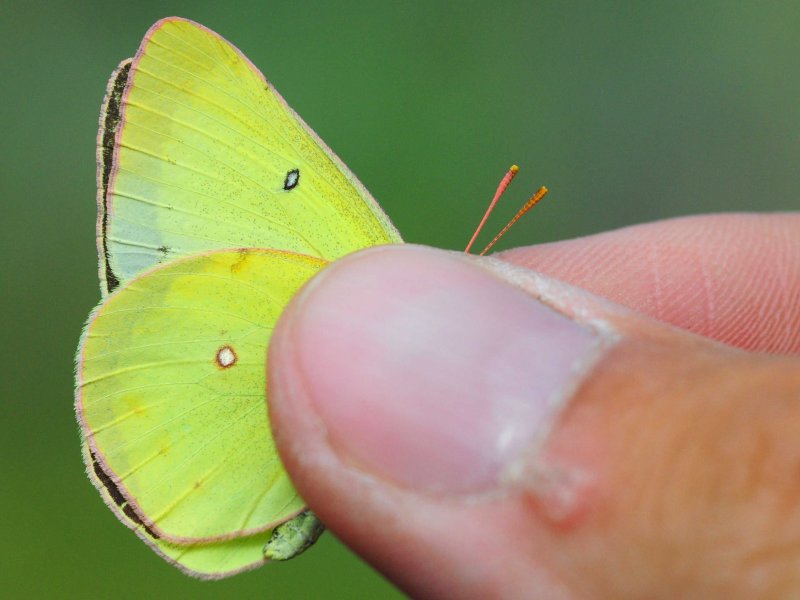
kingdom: Animalia
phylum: Arthropoda
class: Insecta
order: Lepidoptera
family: Pieridae
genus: Colias
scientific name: Colias philodice
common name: Clouded Sulphur
